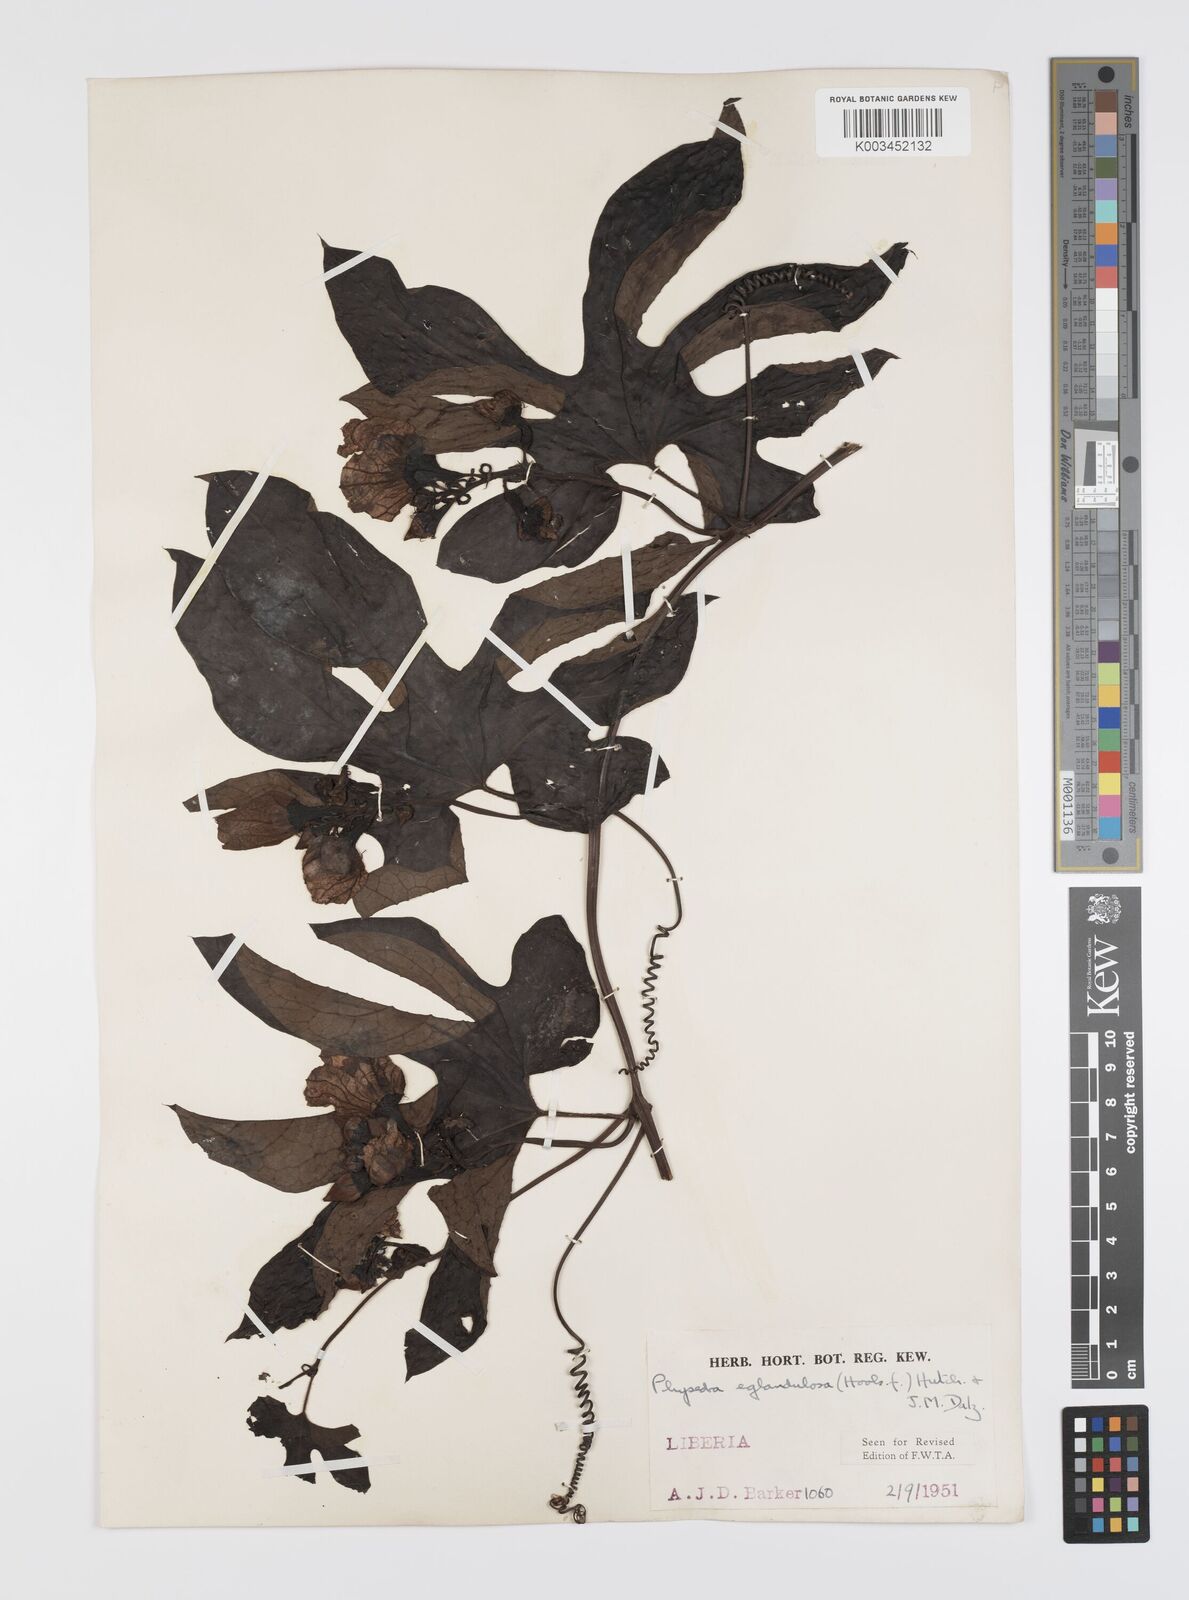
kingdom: Plantae
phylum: Tracheophyta
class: Magnoliopsida
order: Cucurbitales
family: Cucurbitaceae
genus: Ruthalicia
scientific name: Ruthalicia eglandulosa
